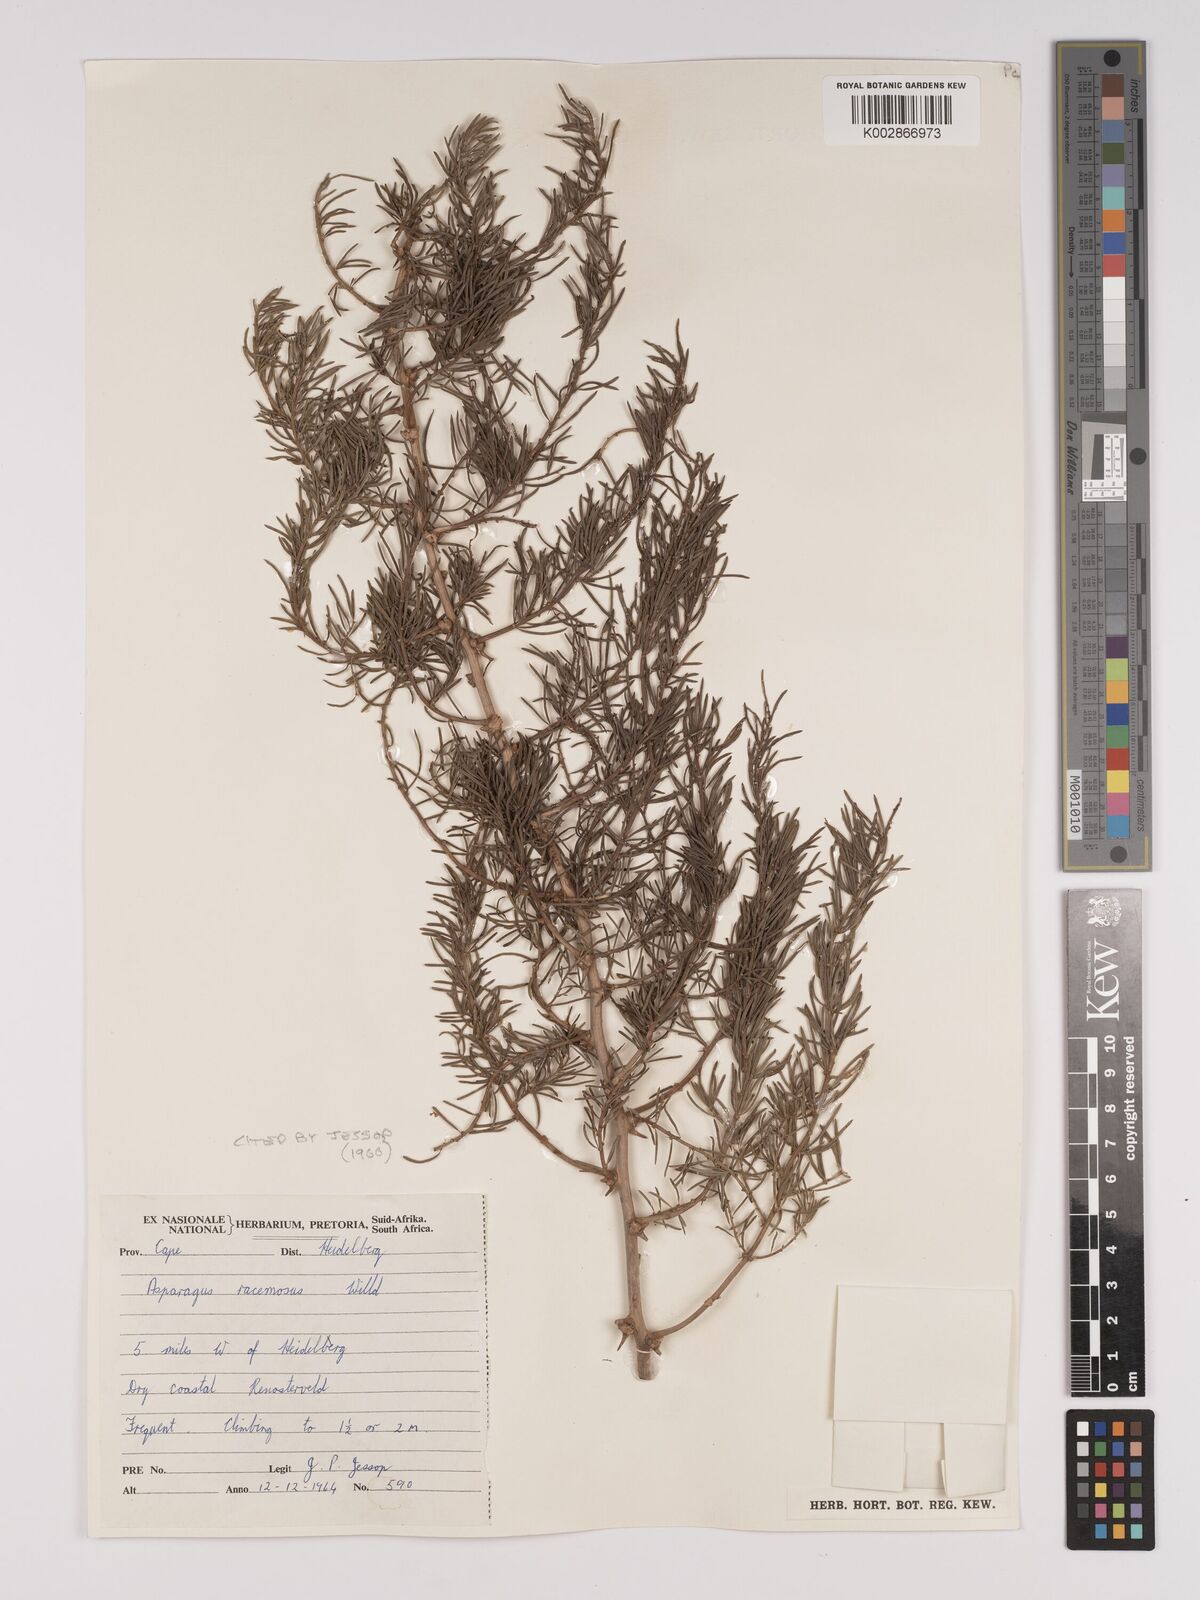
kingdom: Plantae
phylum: Tracheophyta
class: Liliopsida
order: Asparagales
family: Asparagaceae
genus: Asparagus
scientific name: Asparagus racemosus
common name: Asparagus-fern
